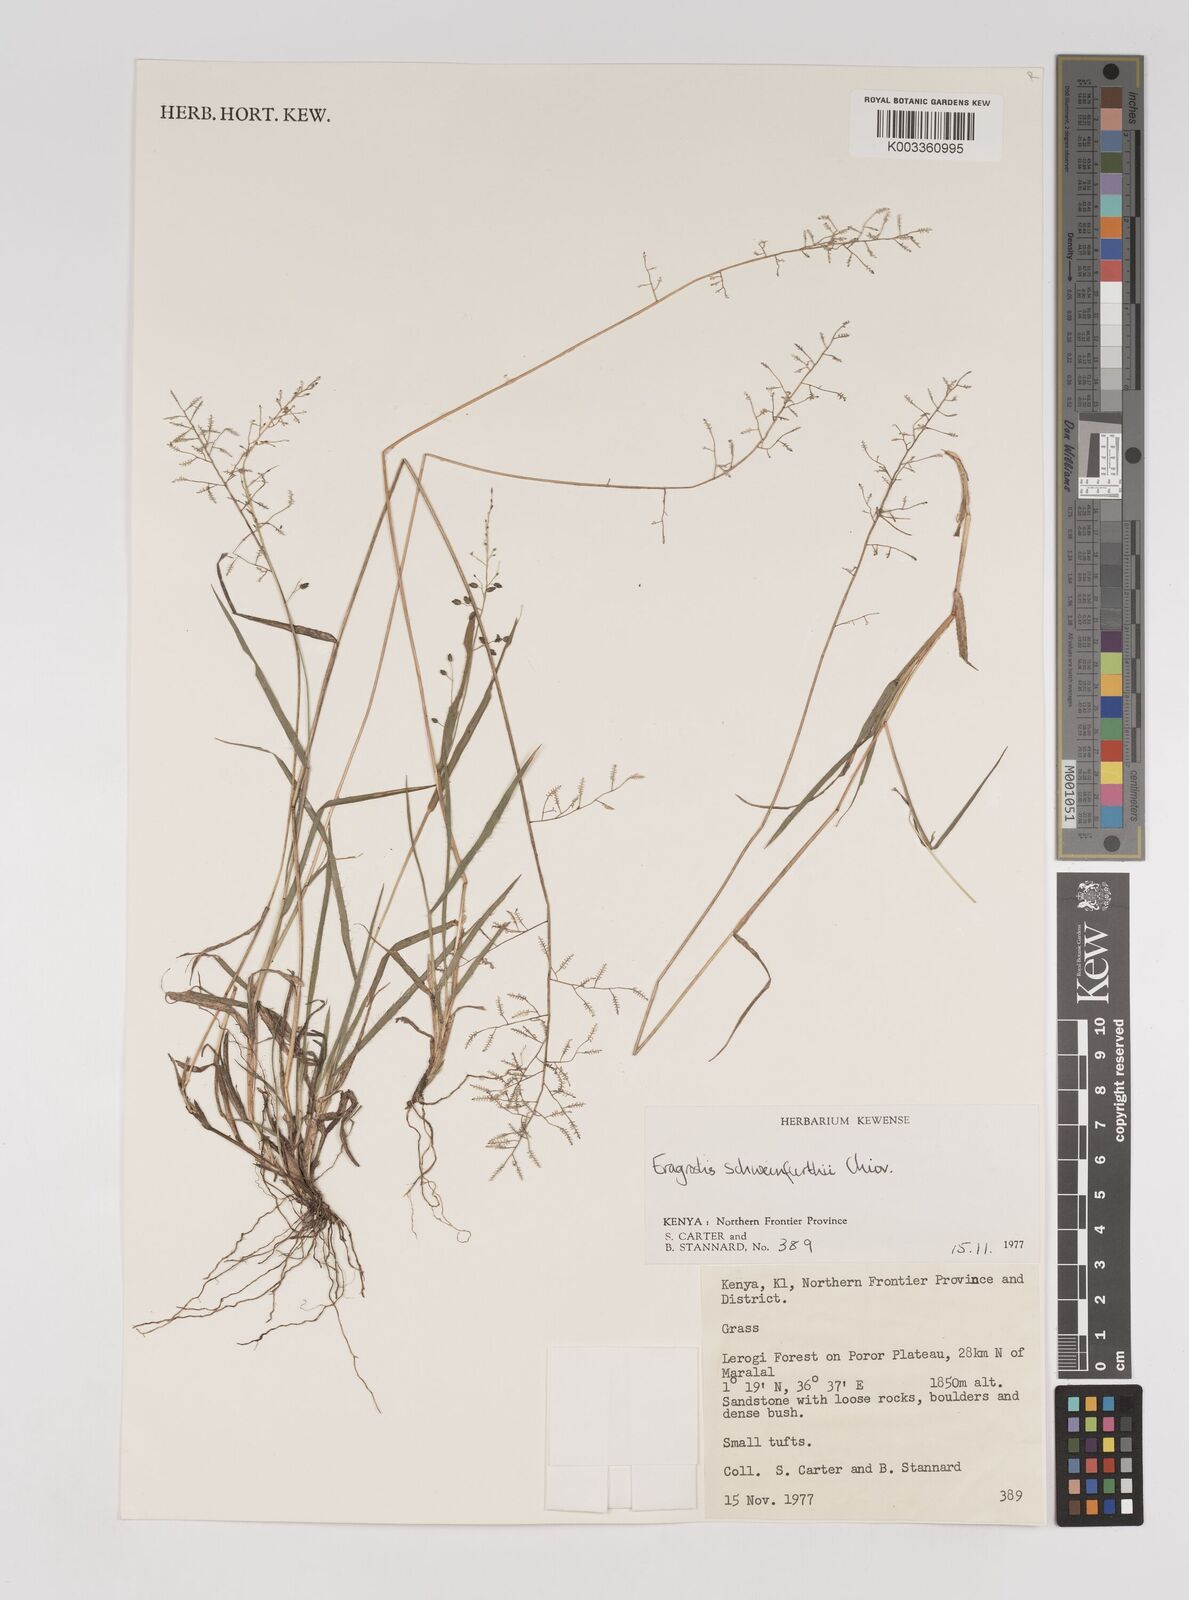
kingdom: Plantae
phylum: Tracheophyta
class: Liliopsida
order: Poales
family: Poaceae
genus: Eragrostis
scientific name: Eragrostis schweinfurthii
